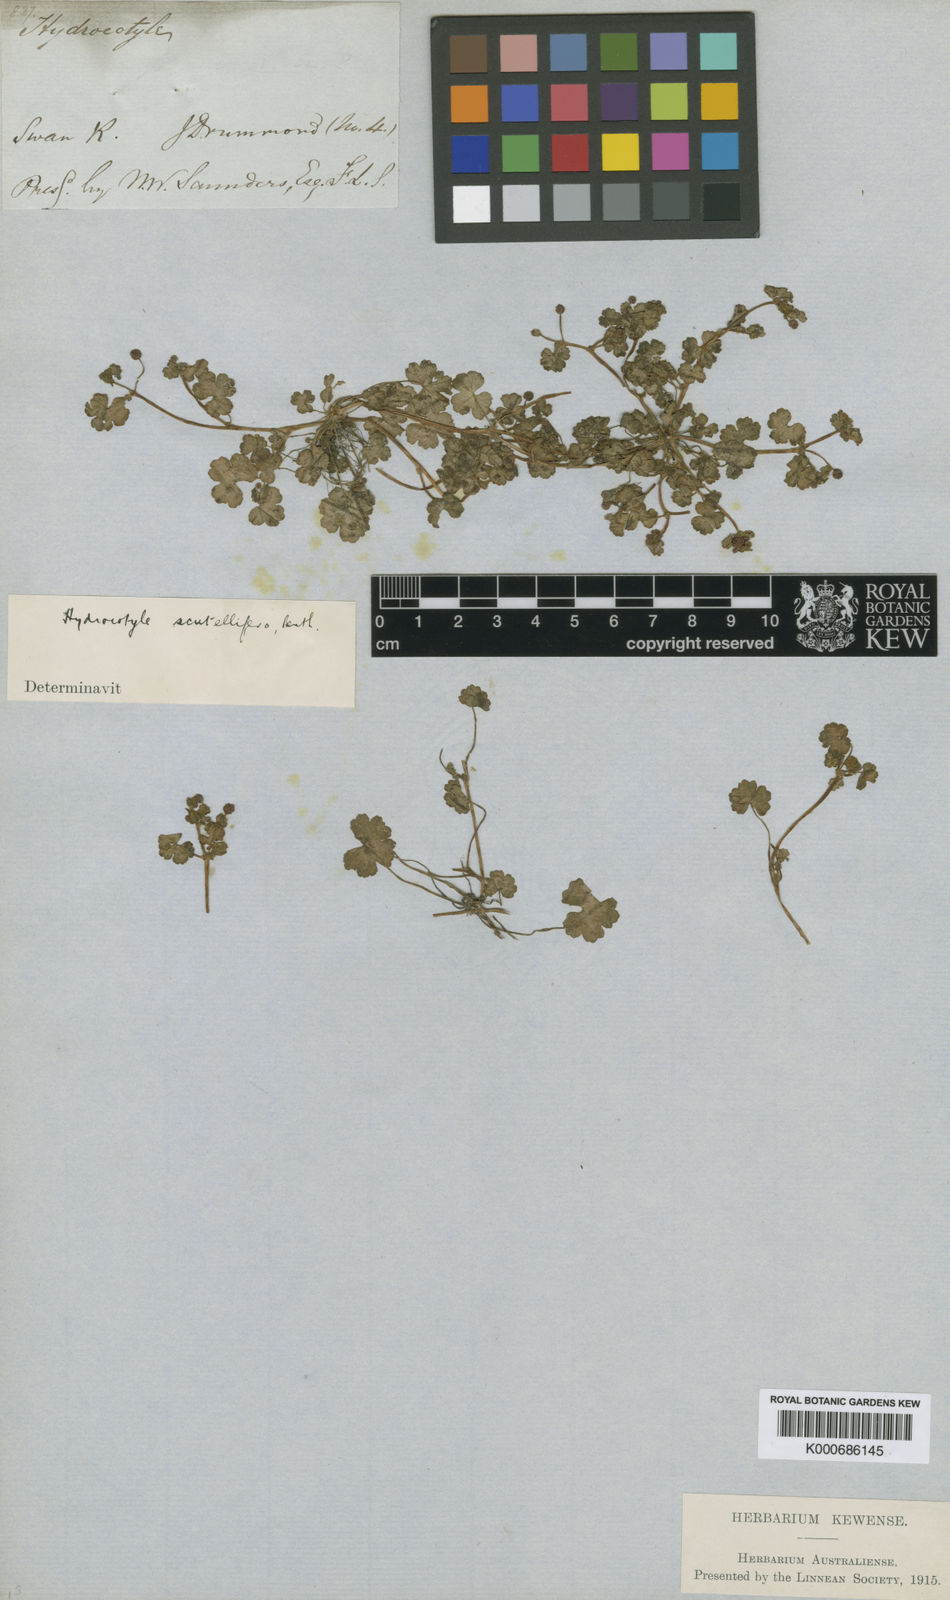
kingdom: Plantae
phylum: Tracheophyta
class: Magnoliopsida
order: Apiales
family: Araliaceae
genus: Hydrocotyle
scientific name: Hydrocotyle scutellifera
